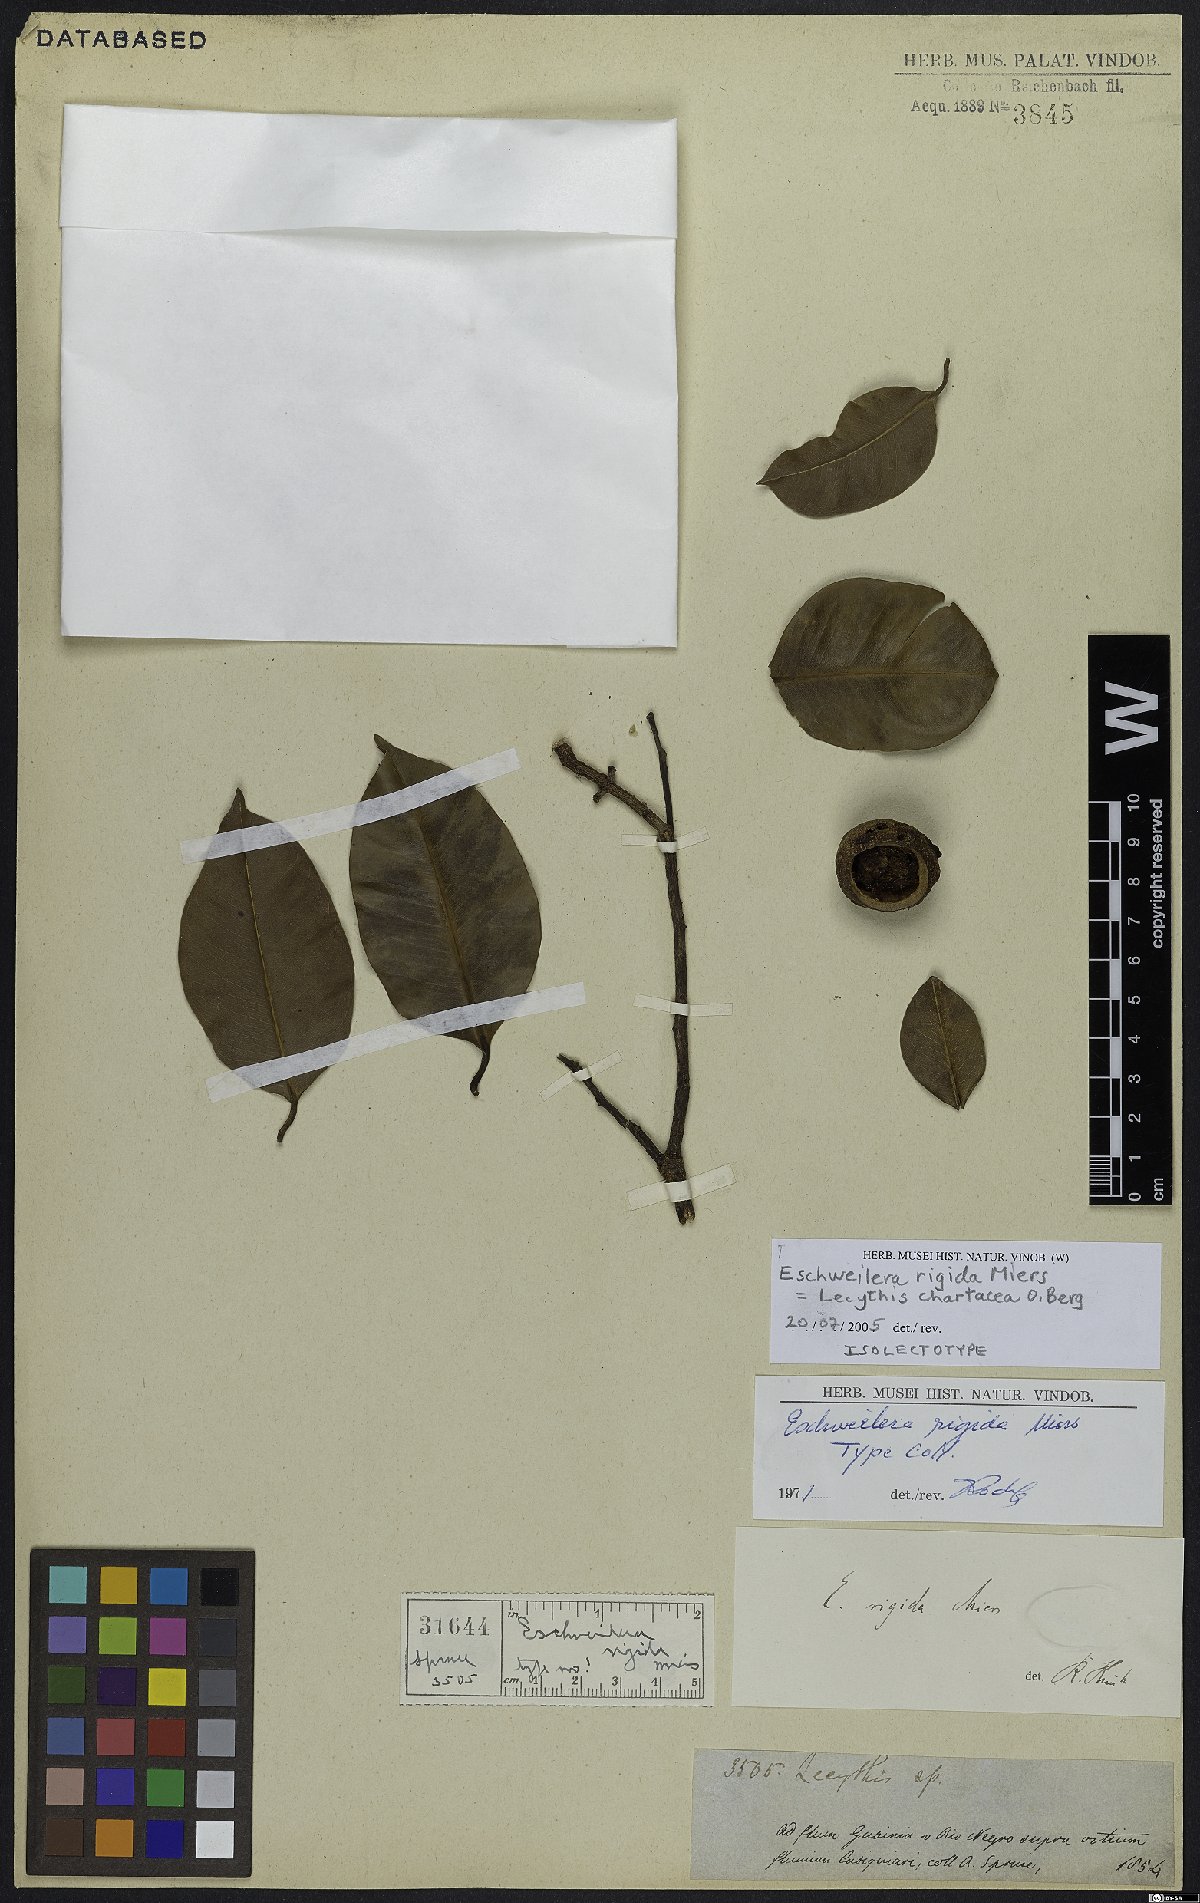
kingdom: Plantae
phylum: Tracheophyta
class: Magnoliopsida
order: Ericales
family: Lecythidaceae
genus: Lecythis
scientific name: Lecythis chartacea
